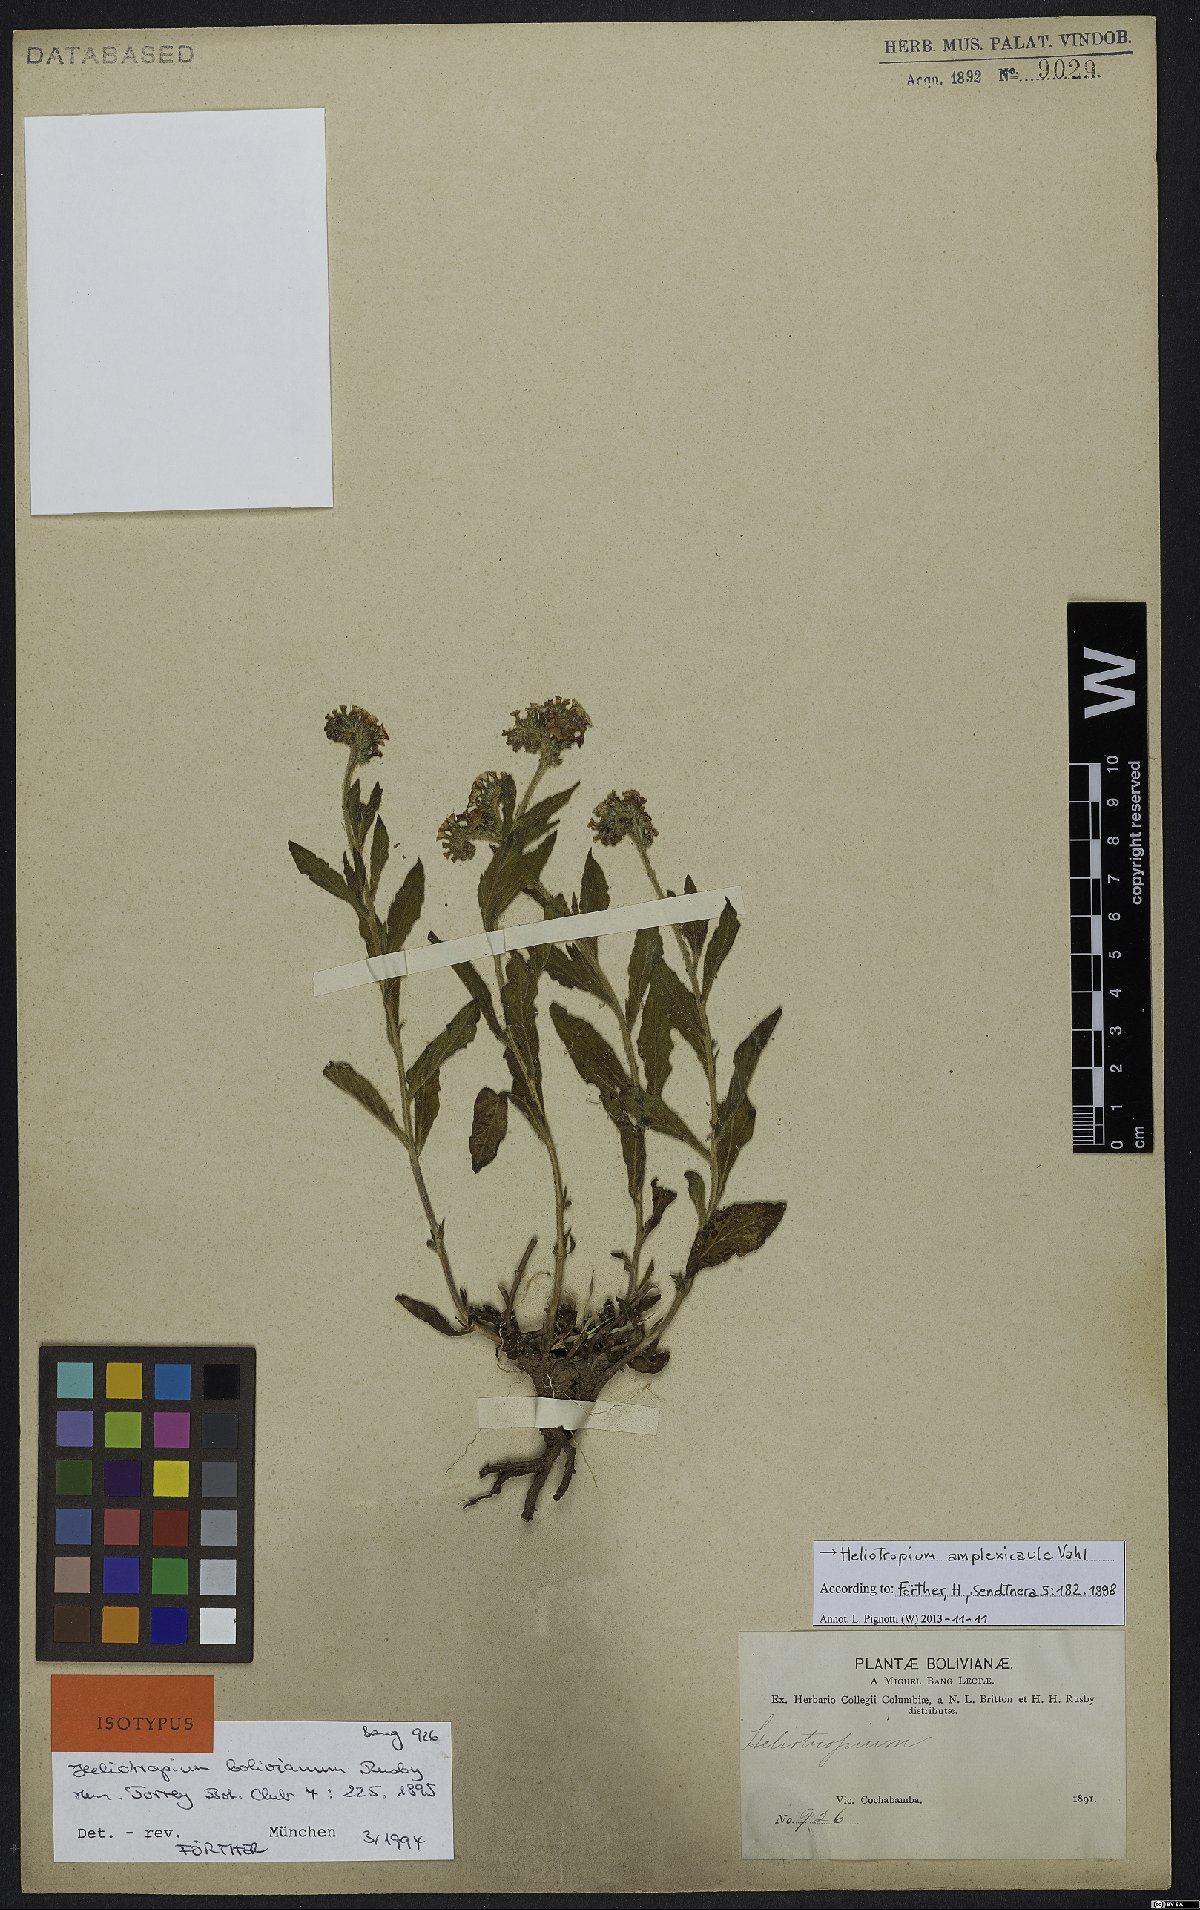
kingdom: Plantae
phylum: Tracheophyta
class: Magnoliopsida
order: Boraginales
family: Heliotropiaceae
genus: Heliotropium
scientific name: Heliotropium amplexicaule
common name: Clasping heliotrope
